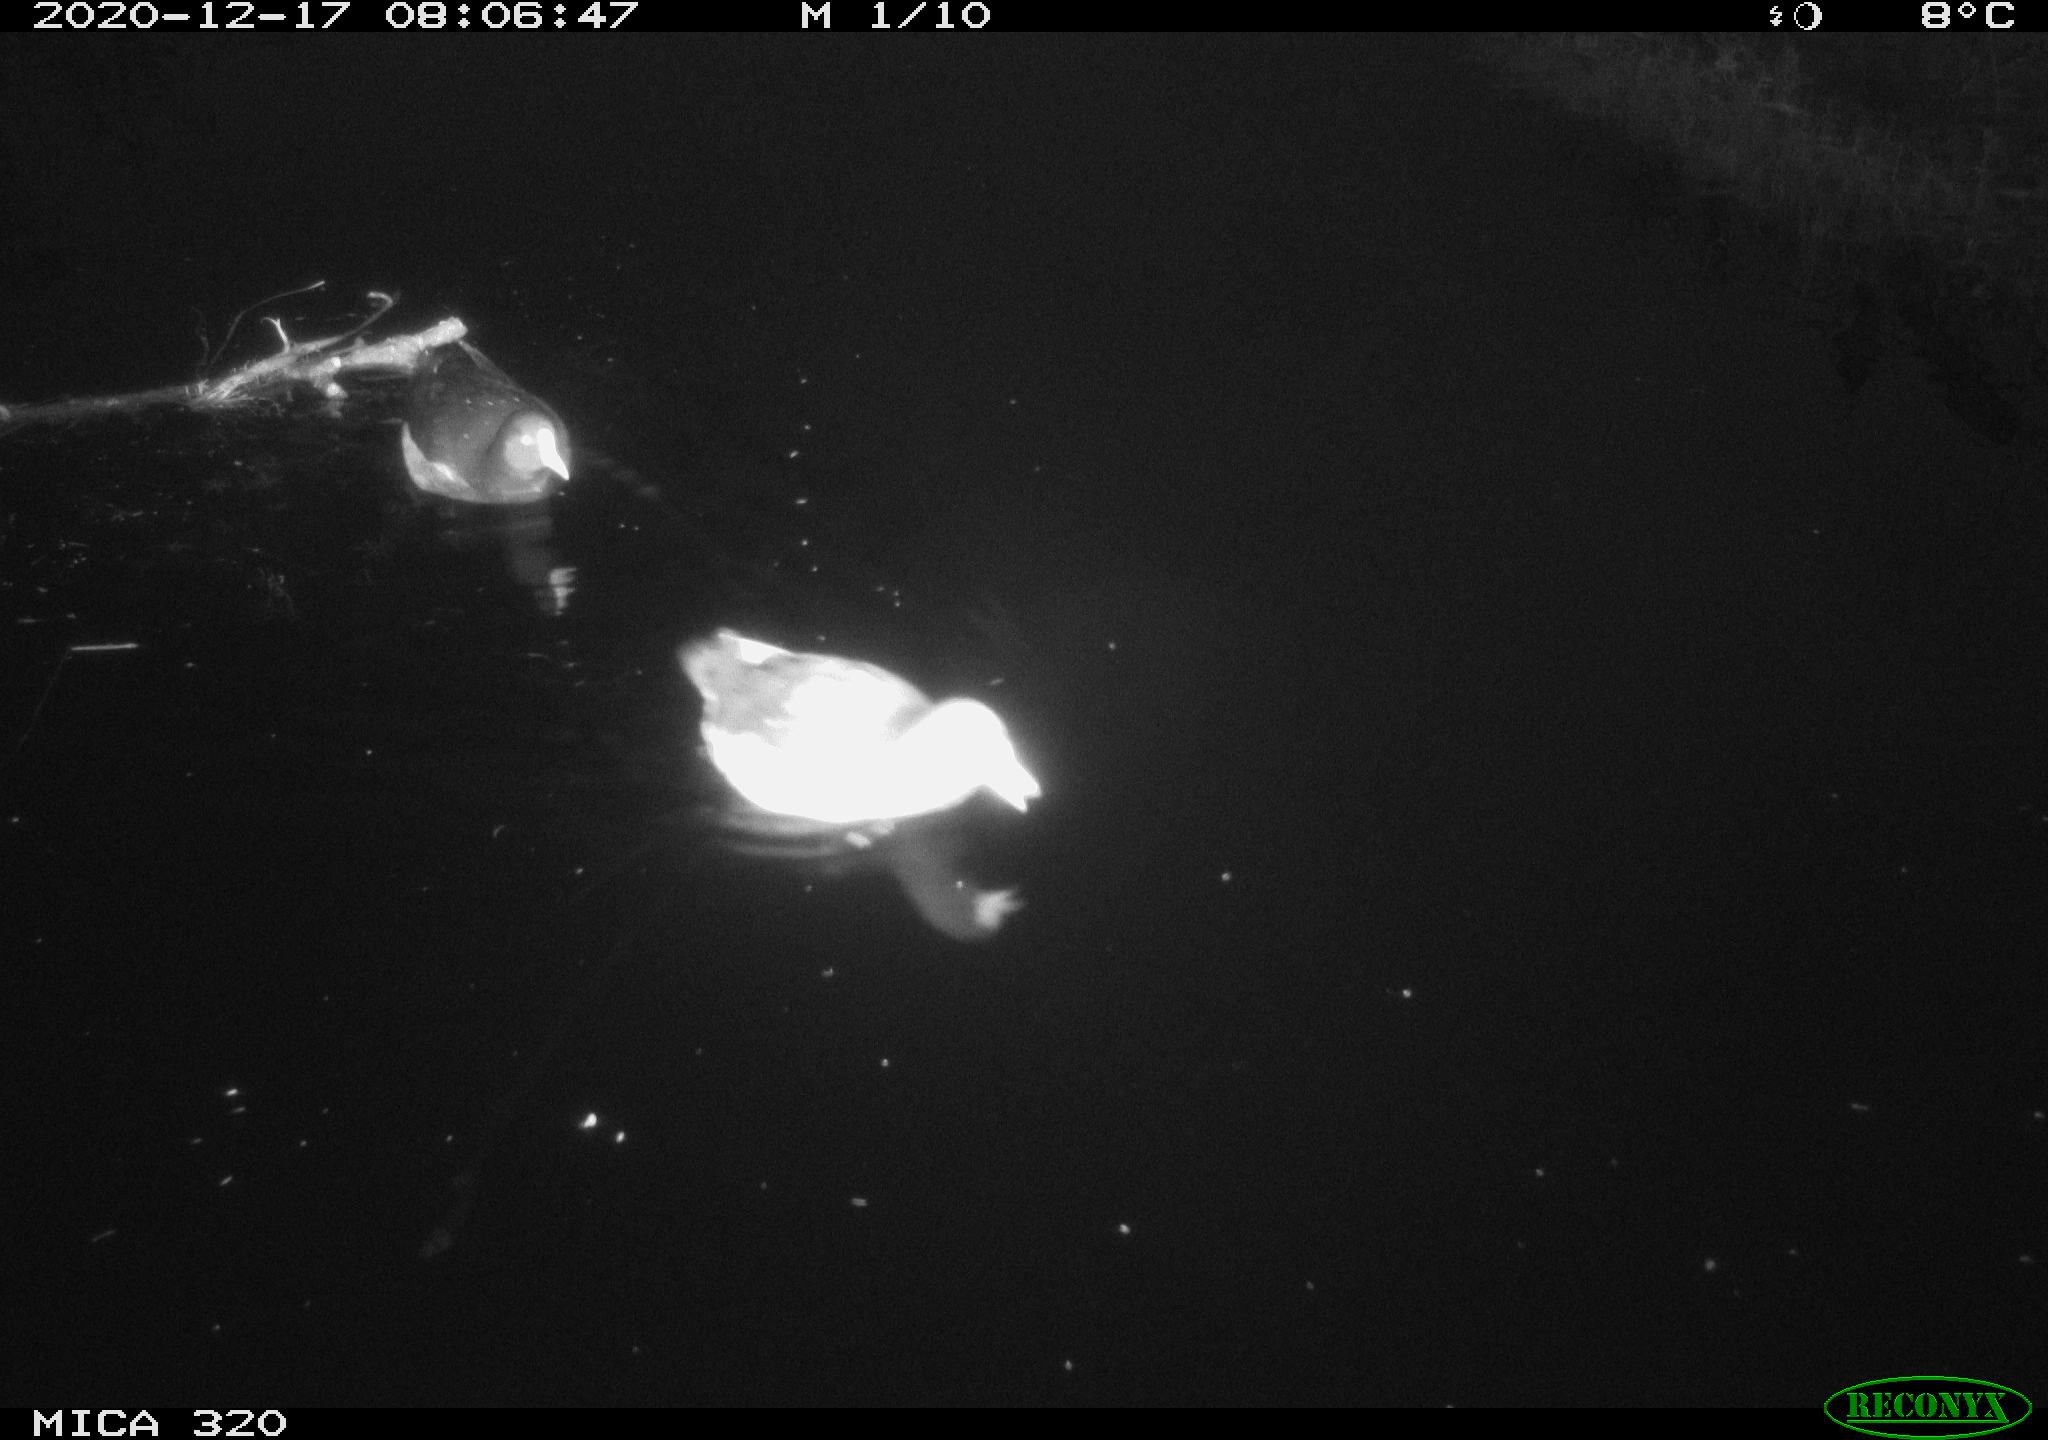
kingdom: Animalia
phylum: Chordata
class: Aves
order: Gruiformes
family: Rallidae
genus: Gallinula
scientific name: Gallinula chloropus
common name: Common moorhen
